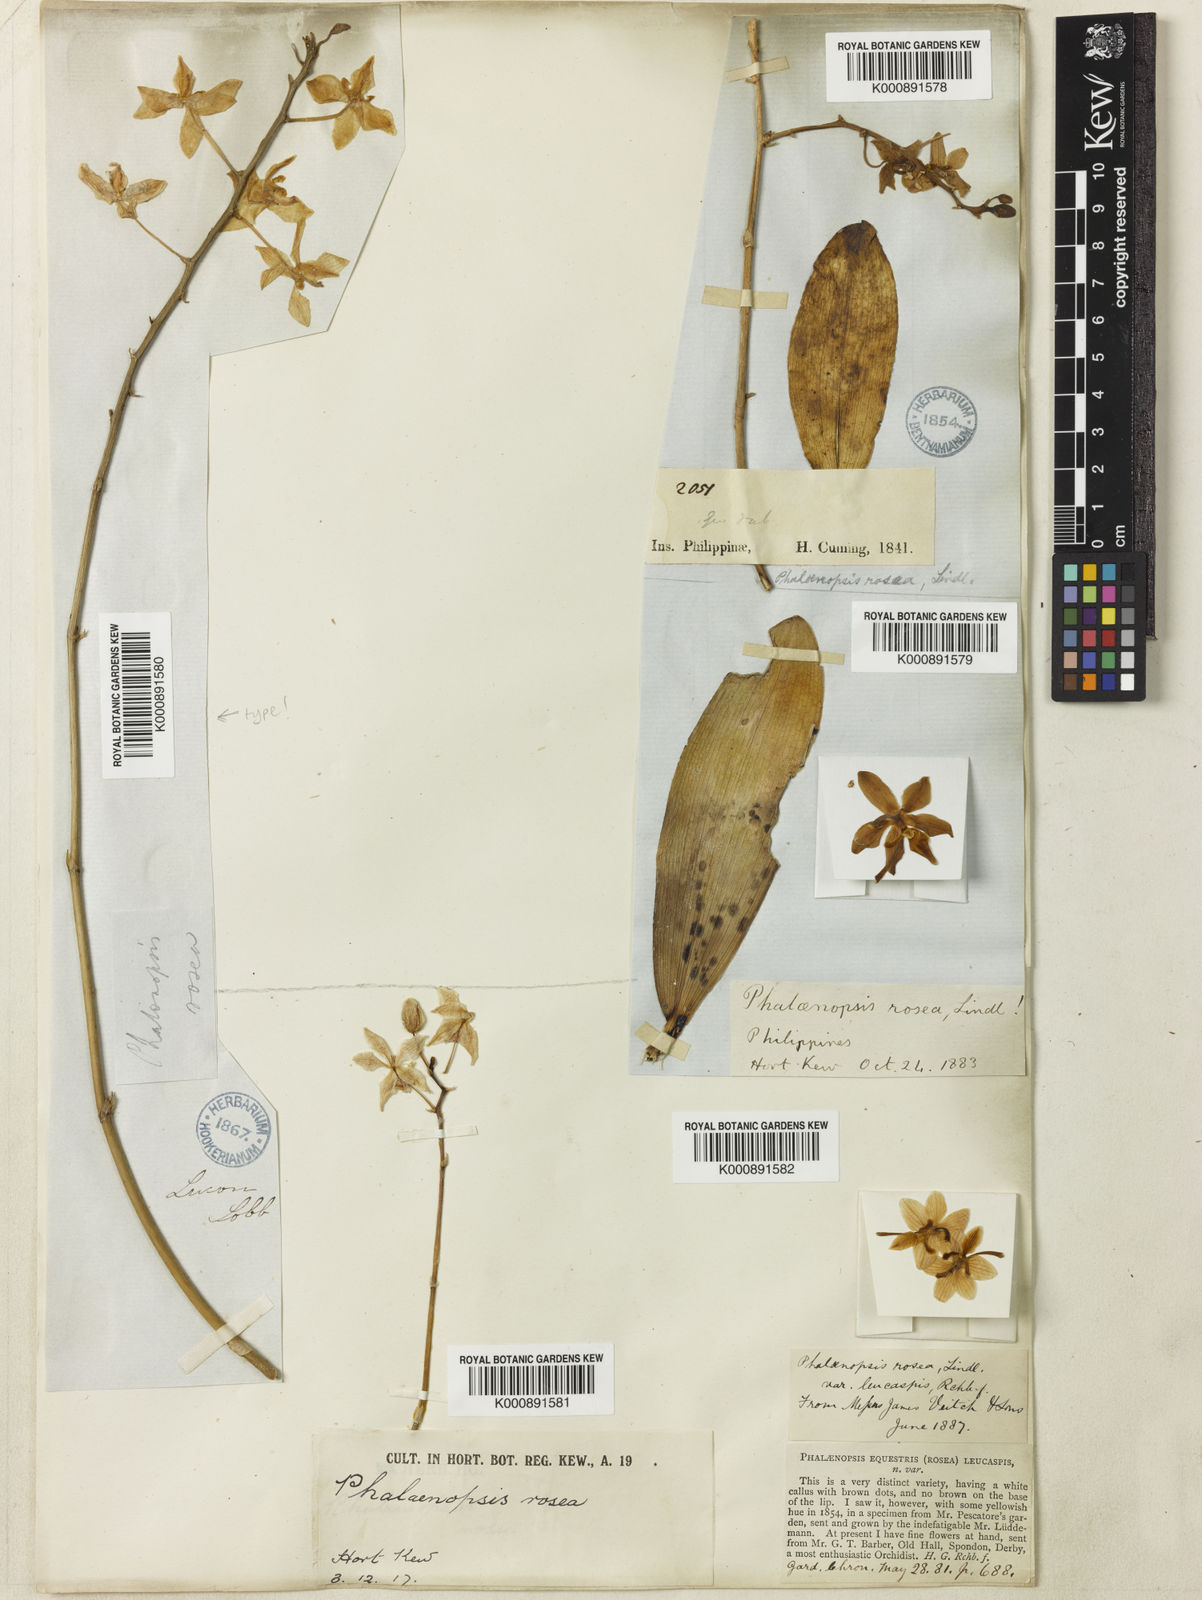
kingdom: Plantae
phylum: Tracheophyta
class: Liliopsida
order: Asparagales
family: Orchidaceae
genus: Phalaenopsis
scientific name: Phalaenopsis equestris
